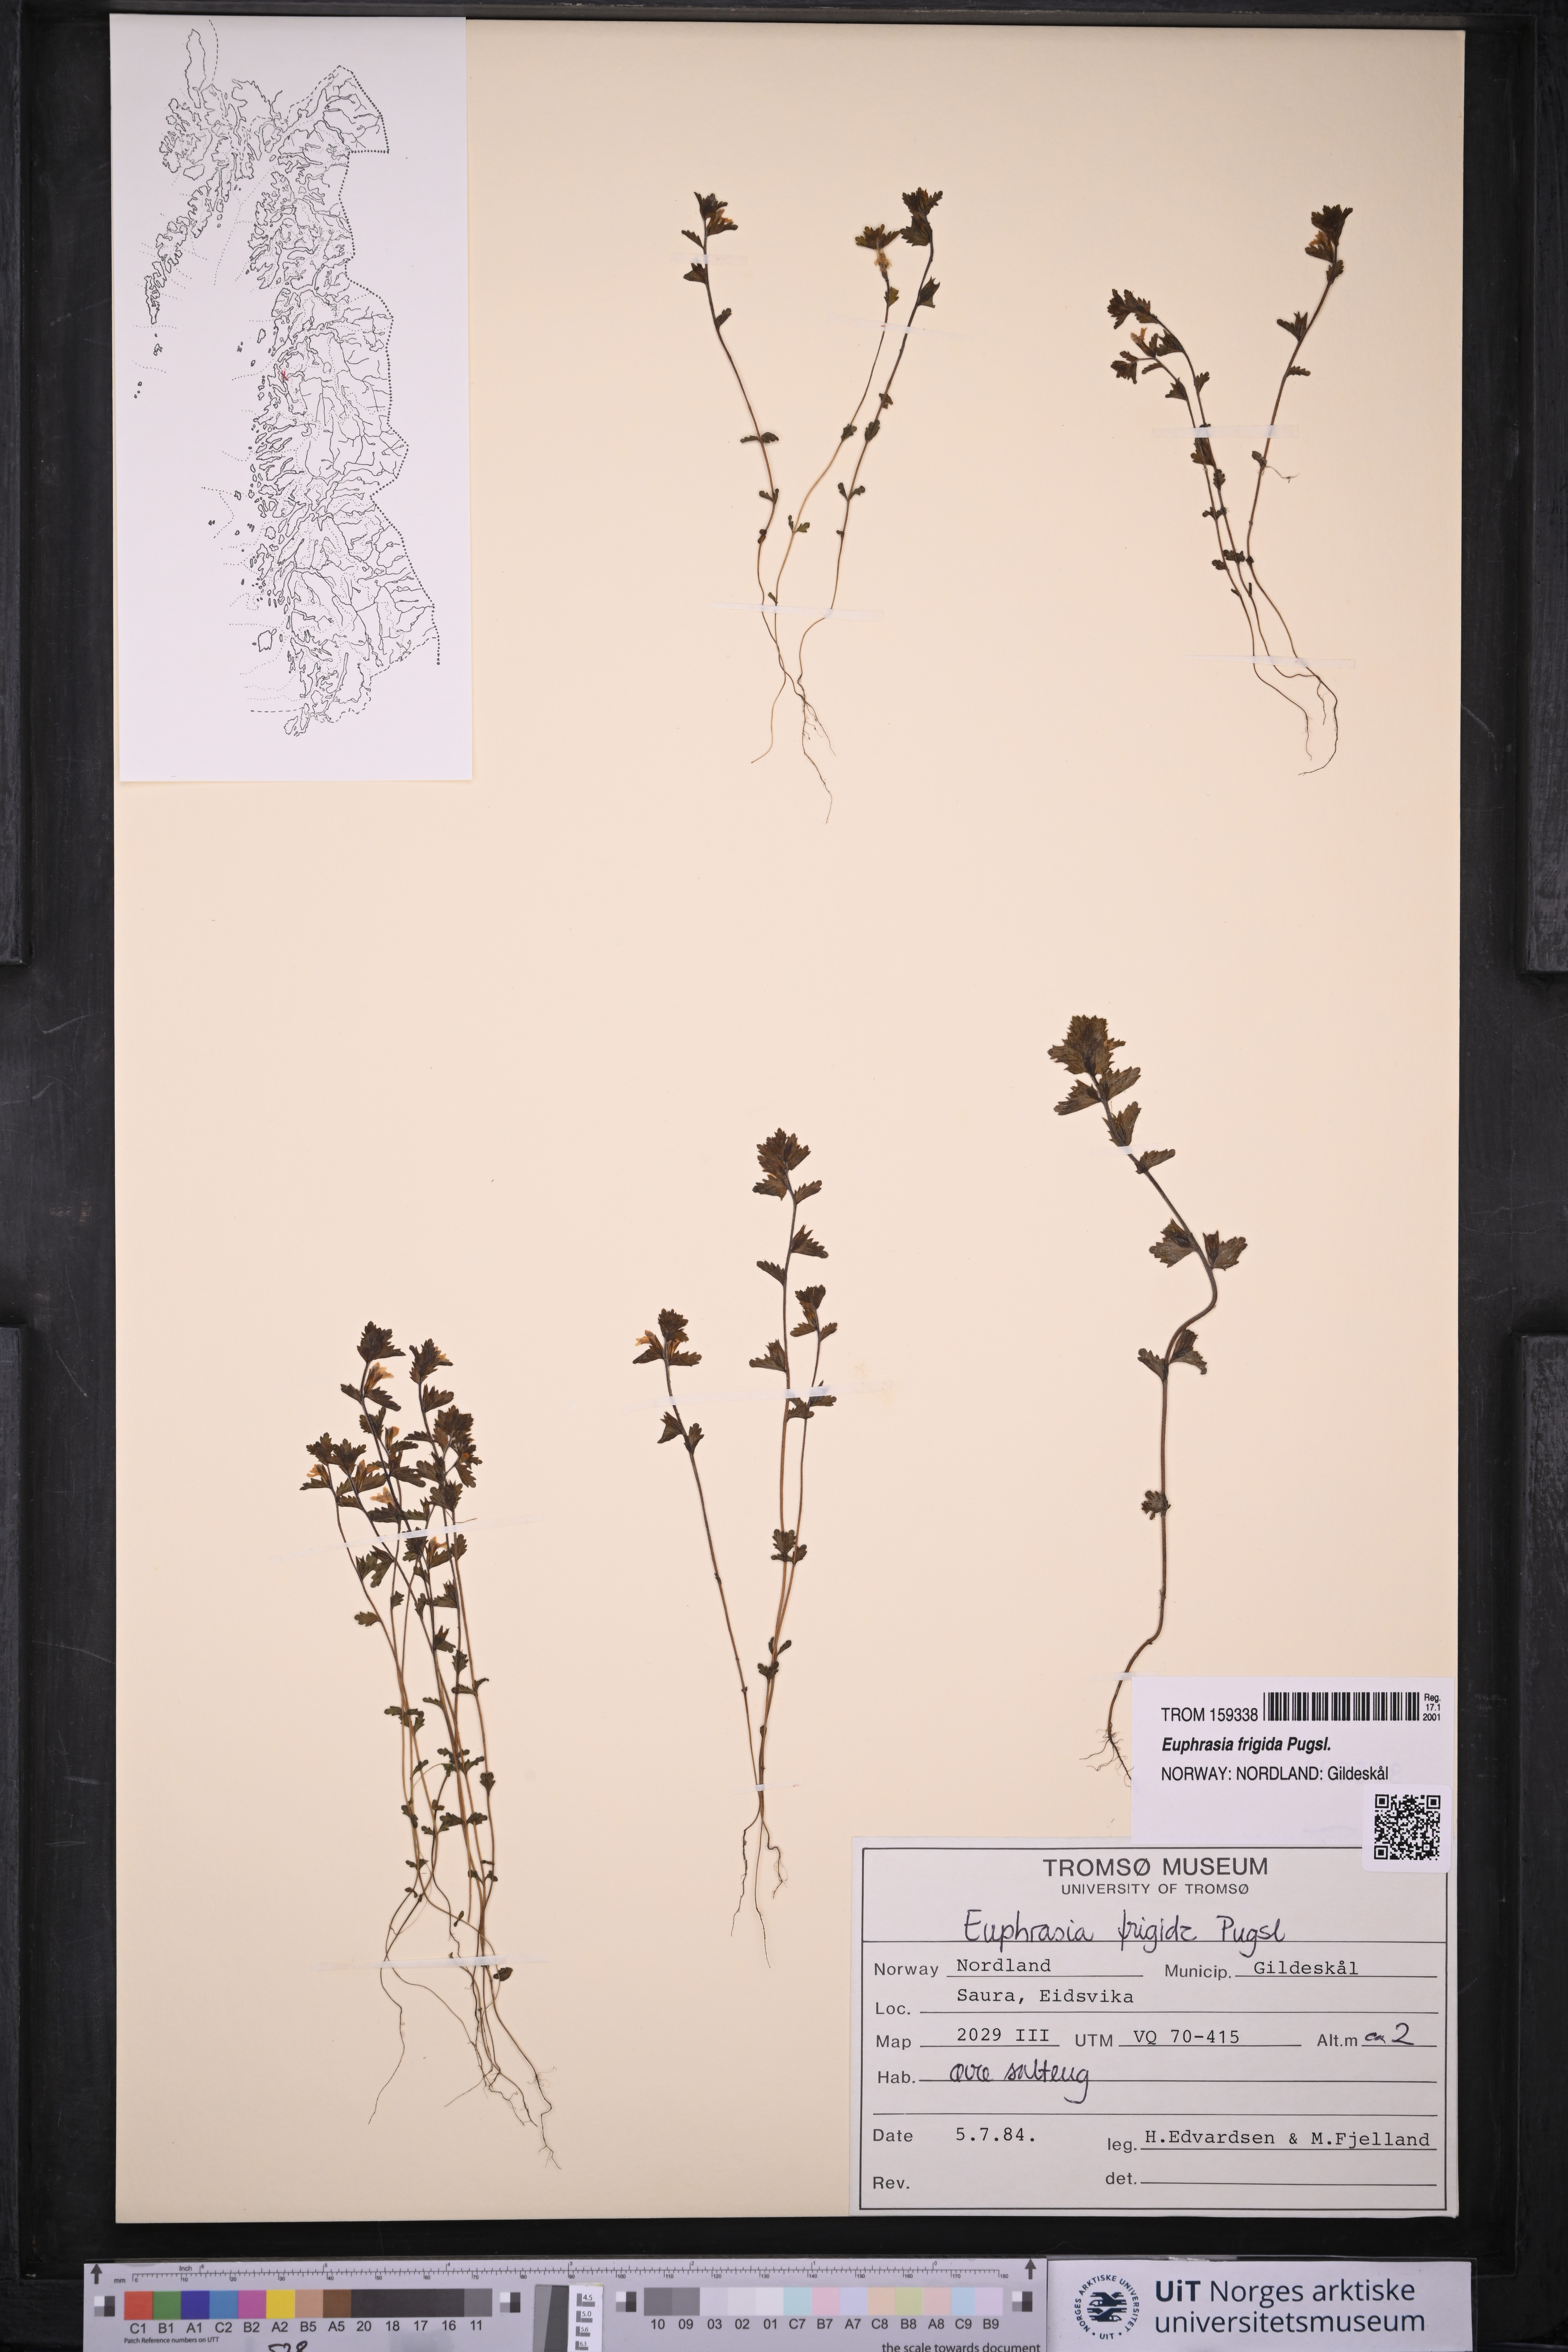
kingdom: Plantae
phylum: Tracheophyta
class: Magnoliopsida
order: Lamiales
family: Orobanchaceae
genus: Euphrasia
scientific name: Euphrasia frigida
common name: An eyebright
